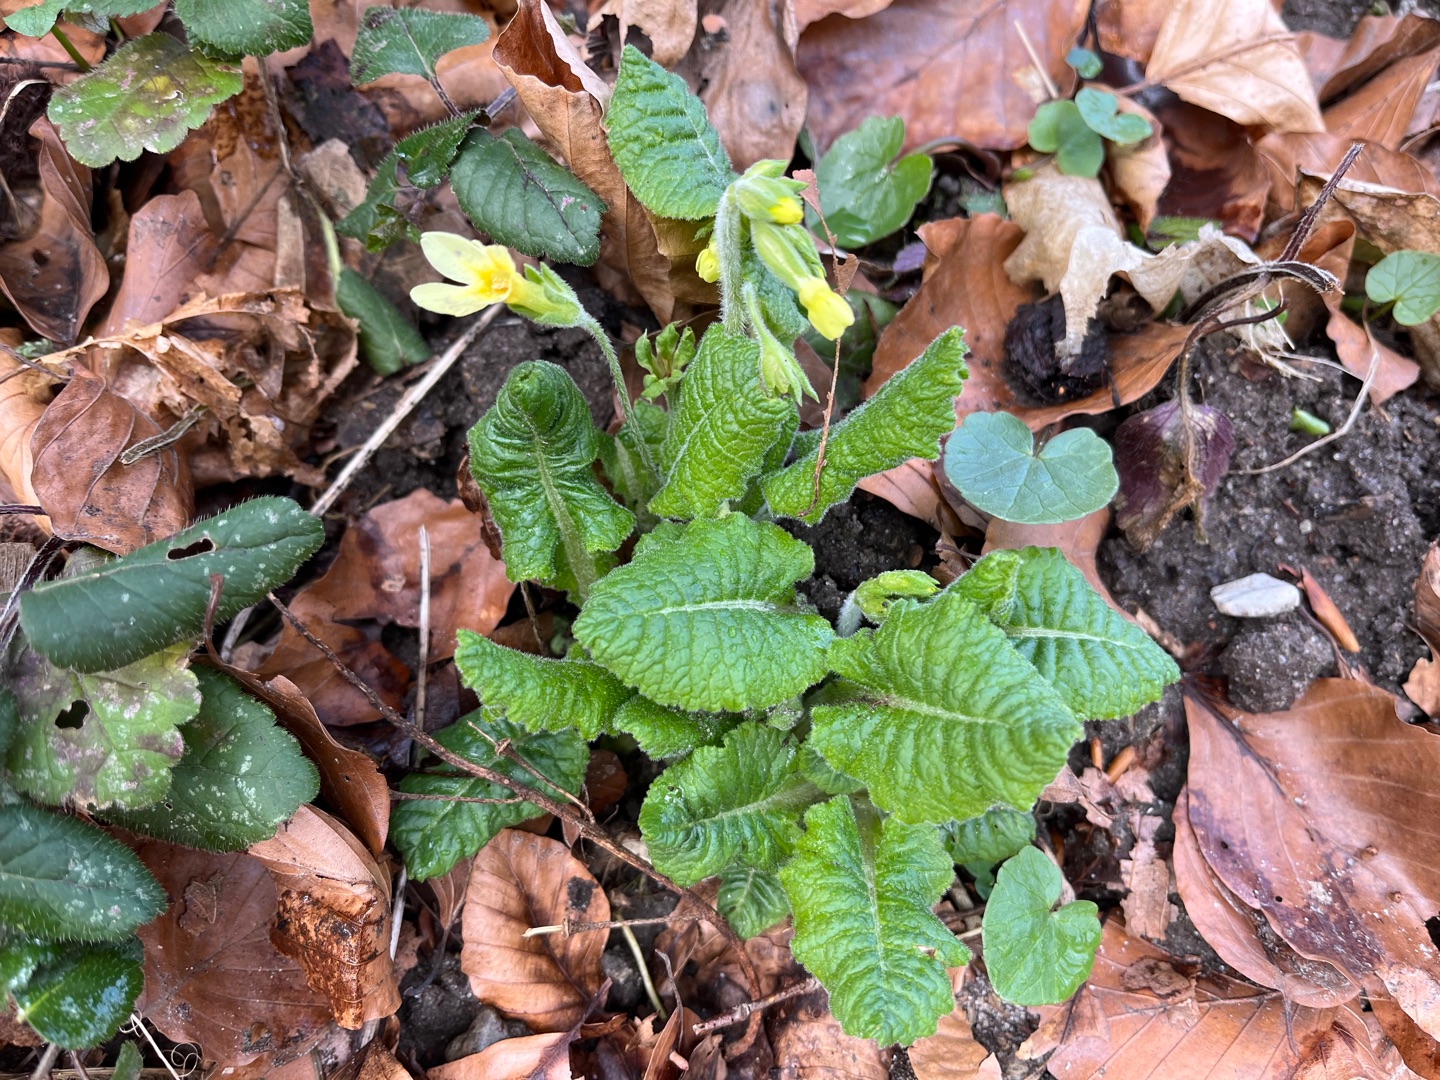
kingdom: Plantae
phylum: Tracheophyta
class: Magnoliopsida
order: Ericales
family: Primulaceae
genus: Primula
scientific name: Primula elatior
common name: Fladkravet kodriver
